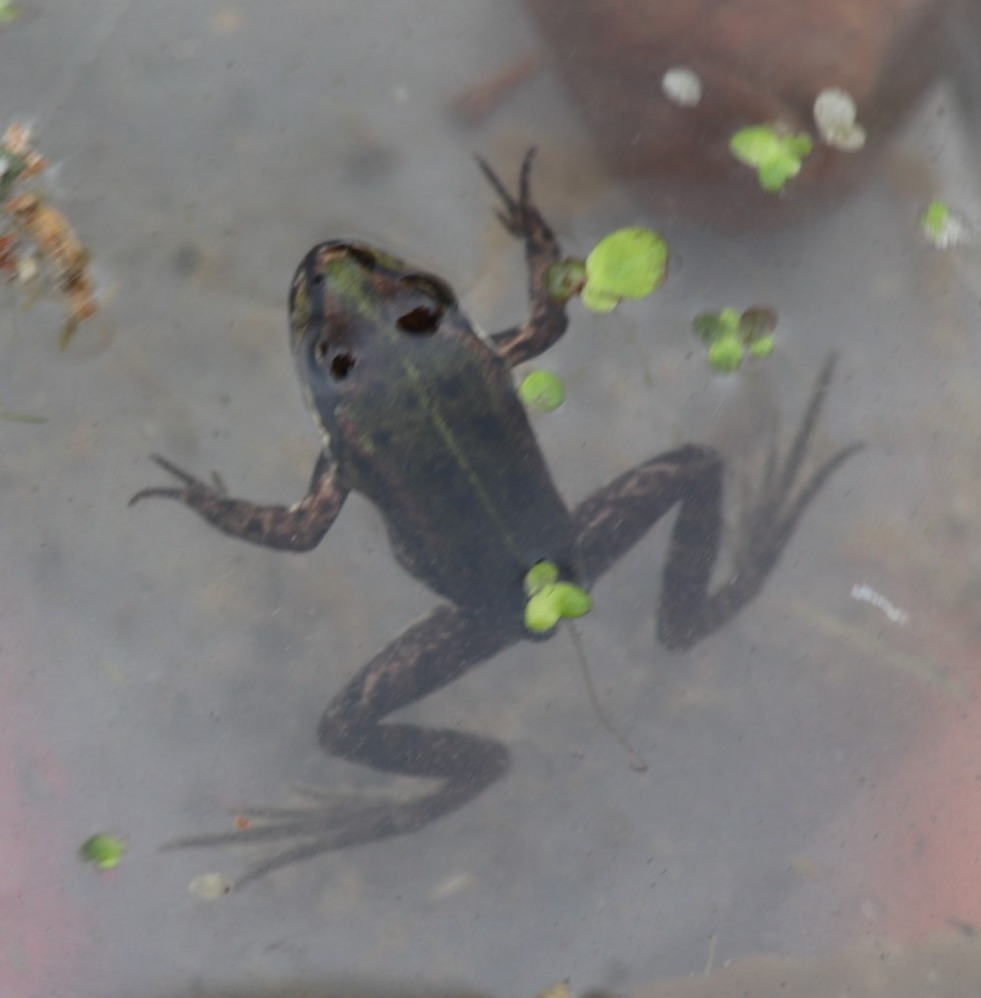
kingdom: Animalia
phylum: Chordata
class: Amphibia
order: Anura
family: Ranidae
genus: Pelophylax
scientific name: Pelophylax lessonae
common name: Grøn frø
